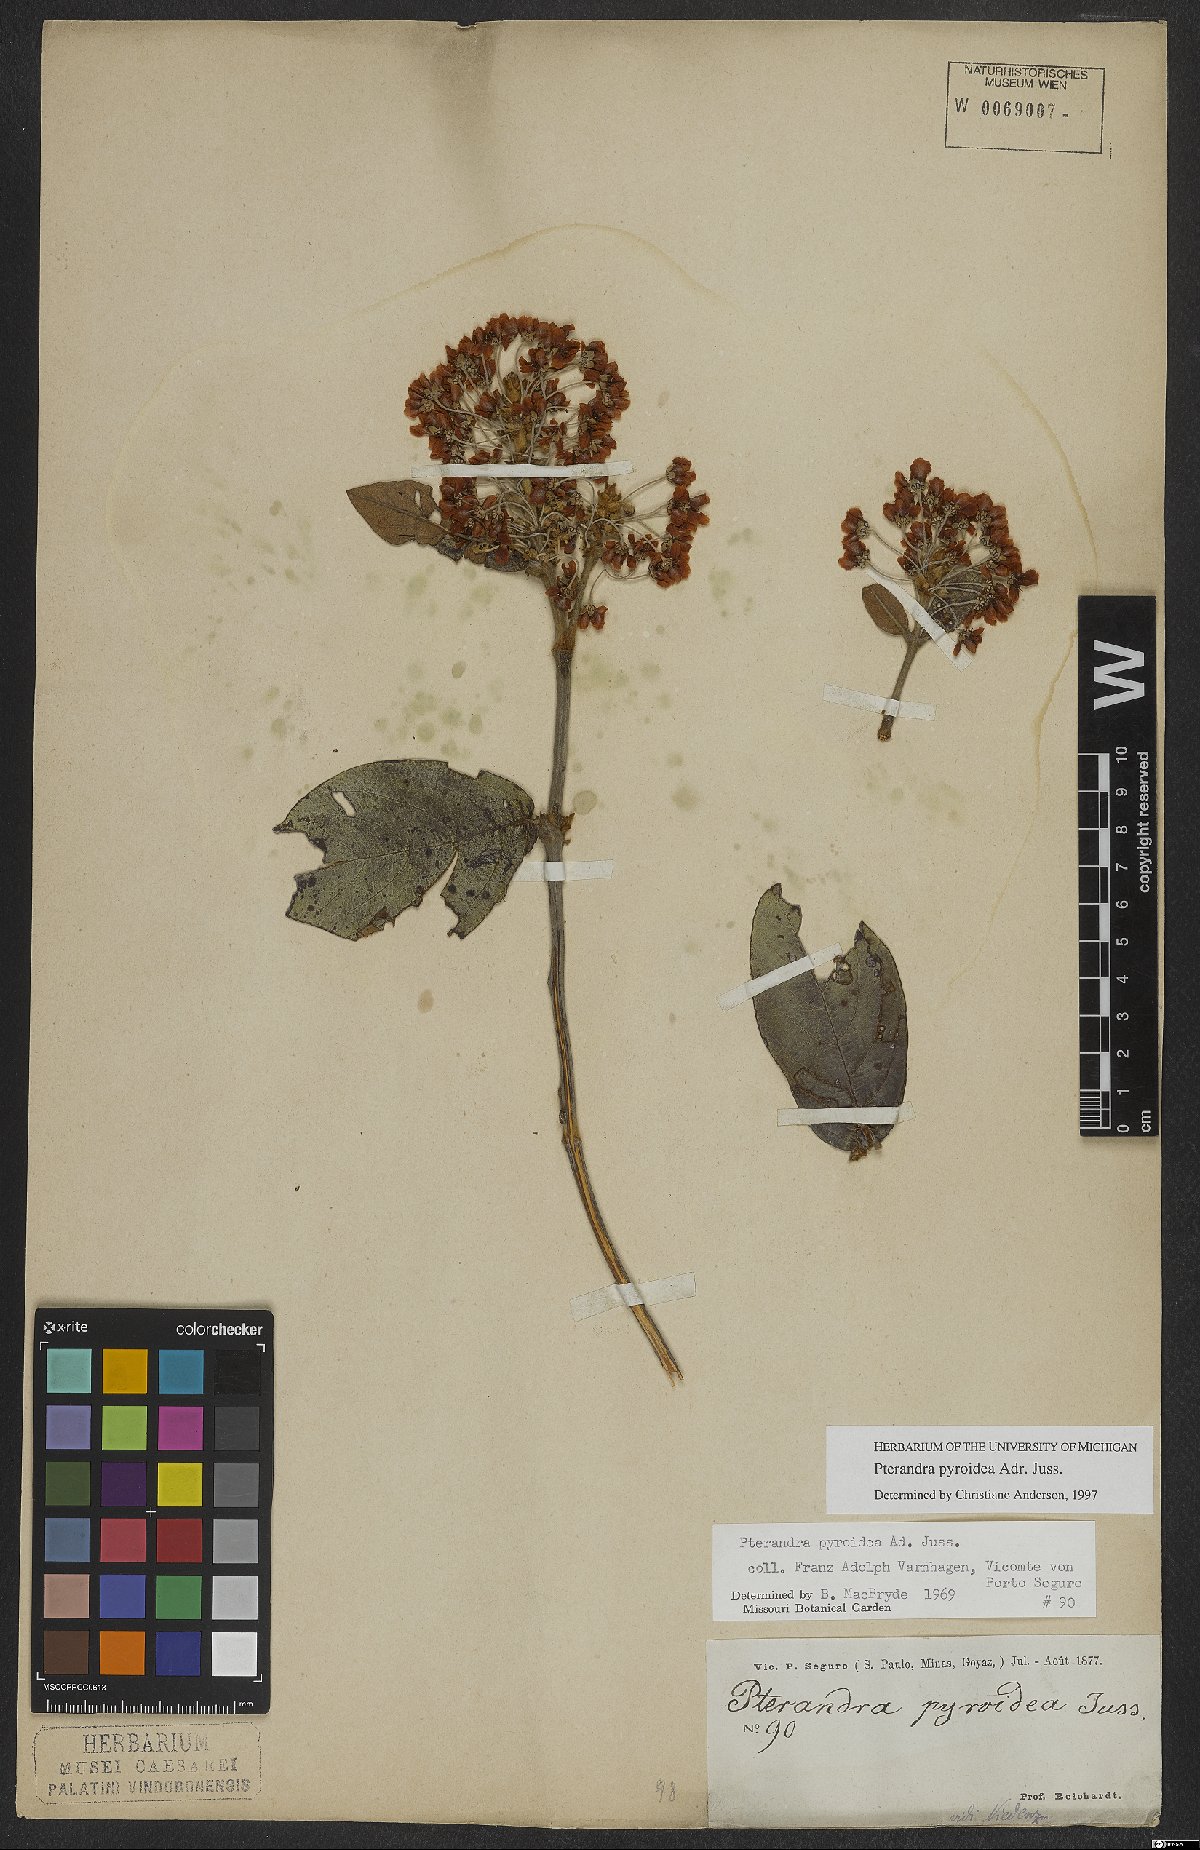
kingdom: Plantae
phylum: Tracheophyta
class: Magnoliopsida
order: Malpighiales
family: Malpighiaceae
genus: Pterandra
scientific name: Pterandra pyroidea
